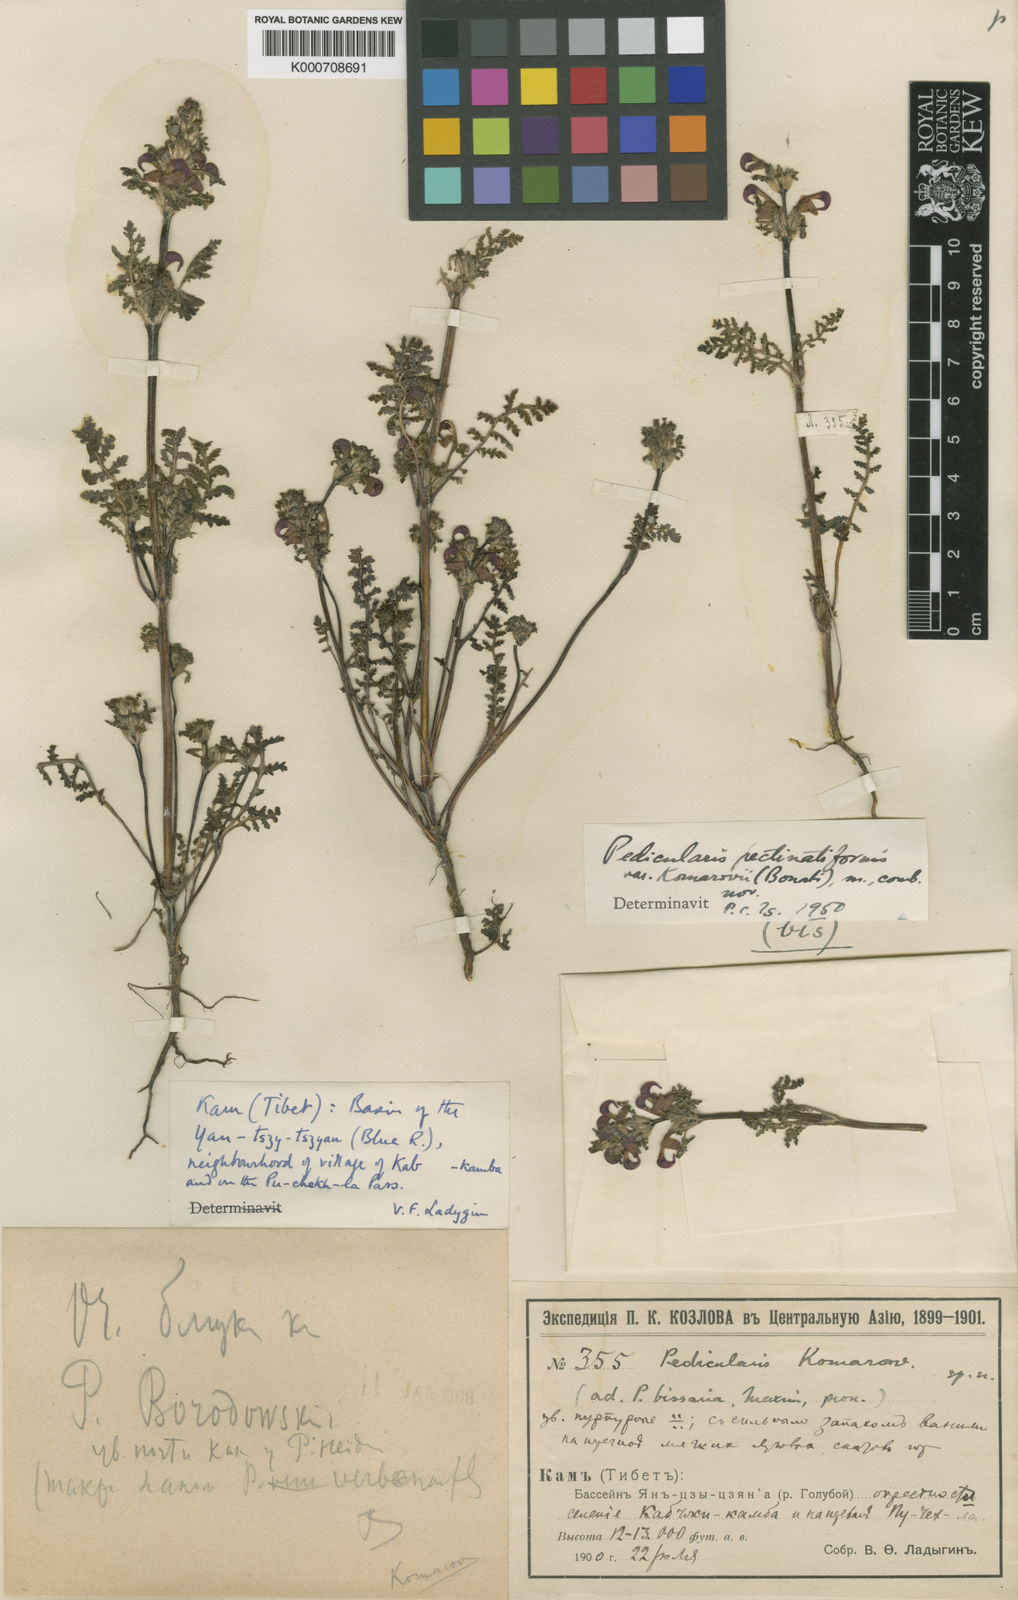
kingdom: Plantae
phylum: Tracheophyta
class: Magnoliopsida
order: Lamiales
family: Orobanchaceae
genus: Pedicularis
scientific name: Pedicularis pectinatiformis
